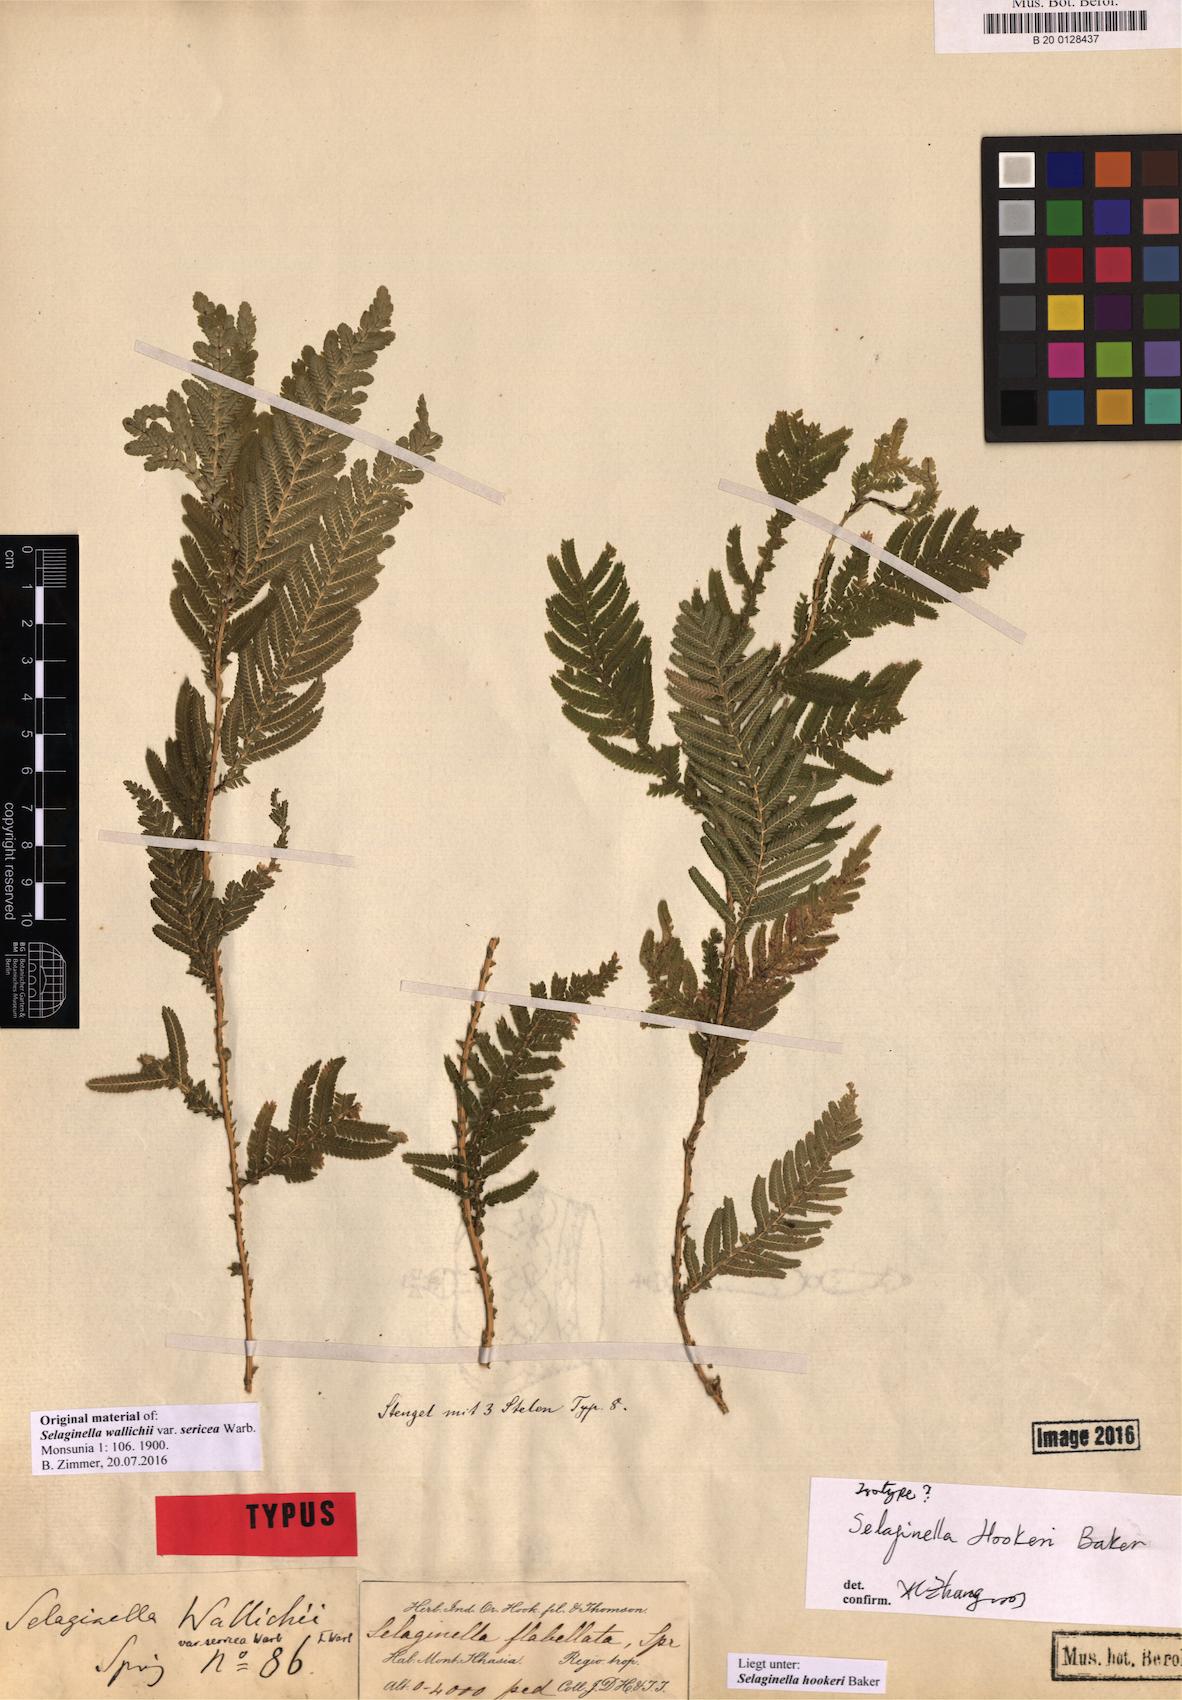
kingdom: Plantae
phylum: Tracheophyta
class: Lycopodiopsida
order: Selaginellales
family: Selaginellaceae
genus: Selaginella
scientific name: Selaginella inaequalifolia
